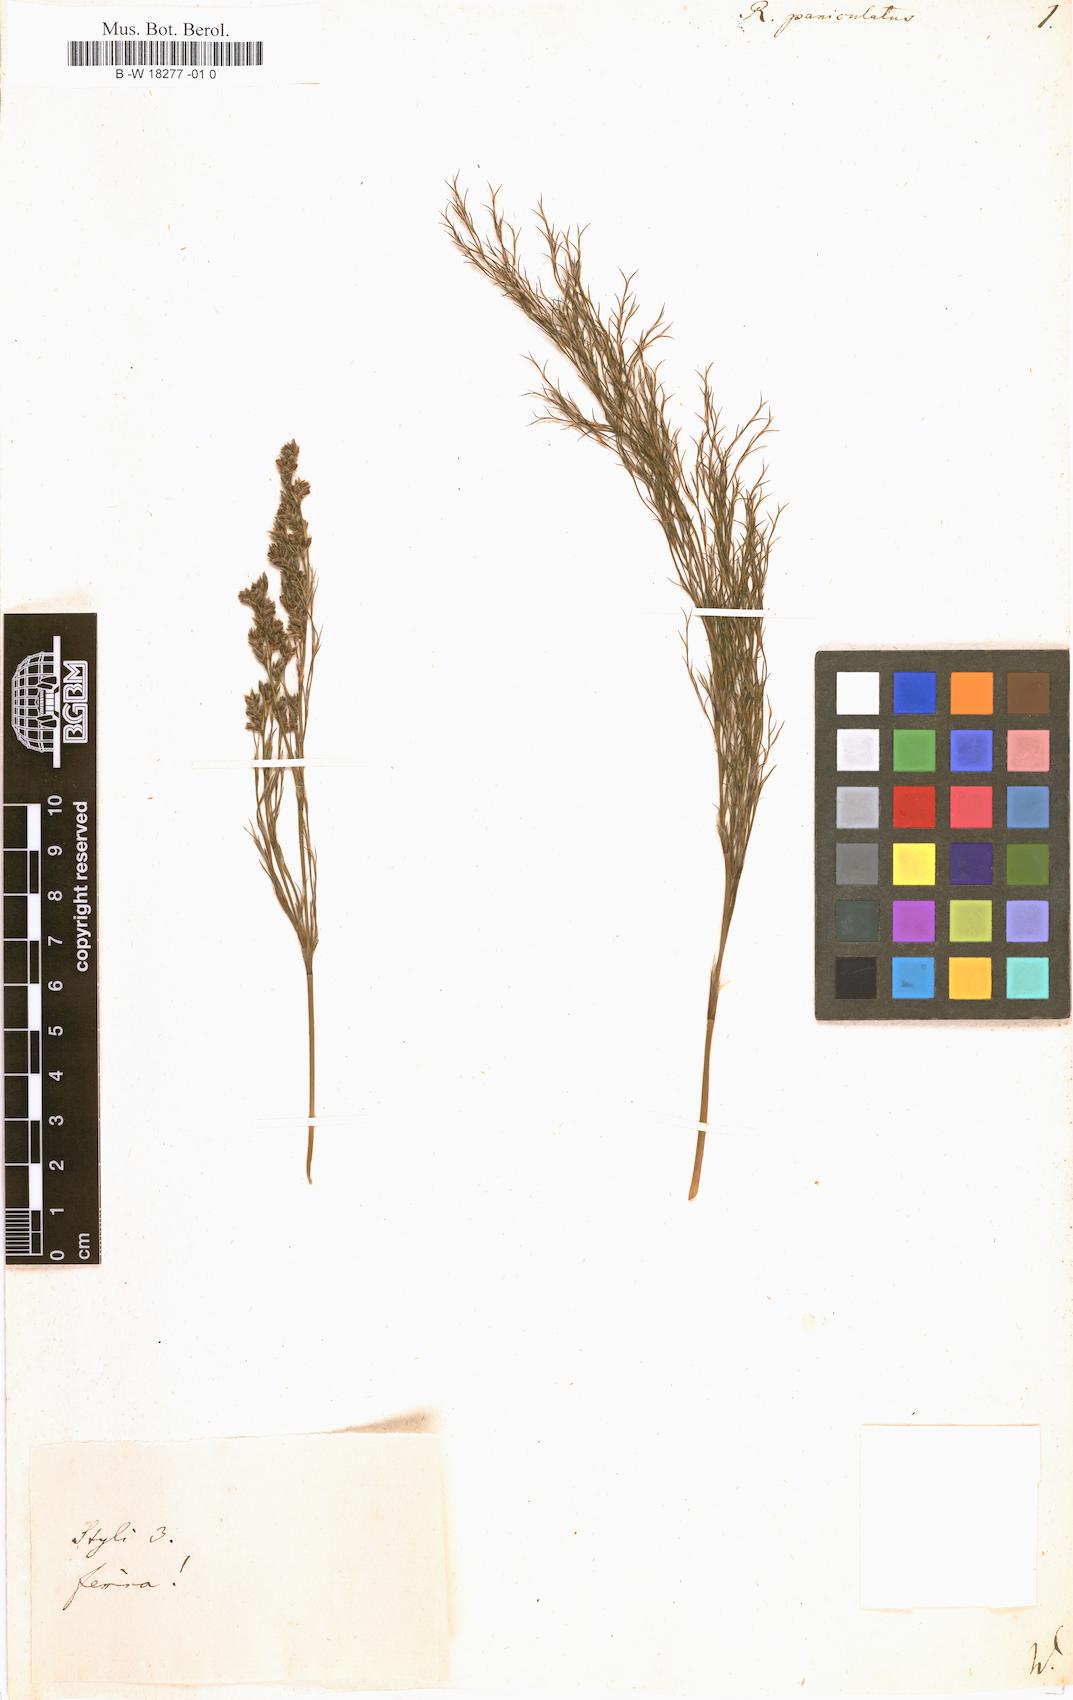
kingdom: Plantae
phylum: Tracheophyta
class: Liliopsida
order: Poales
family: Restionaceae
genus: Restio
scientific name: Restio paniculatus
